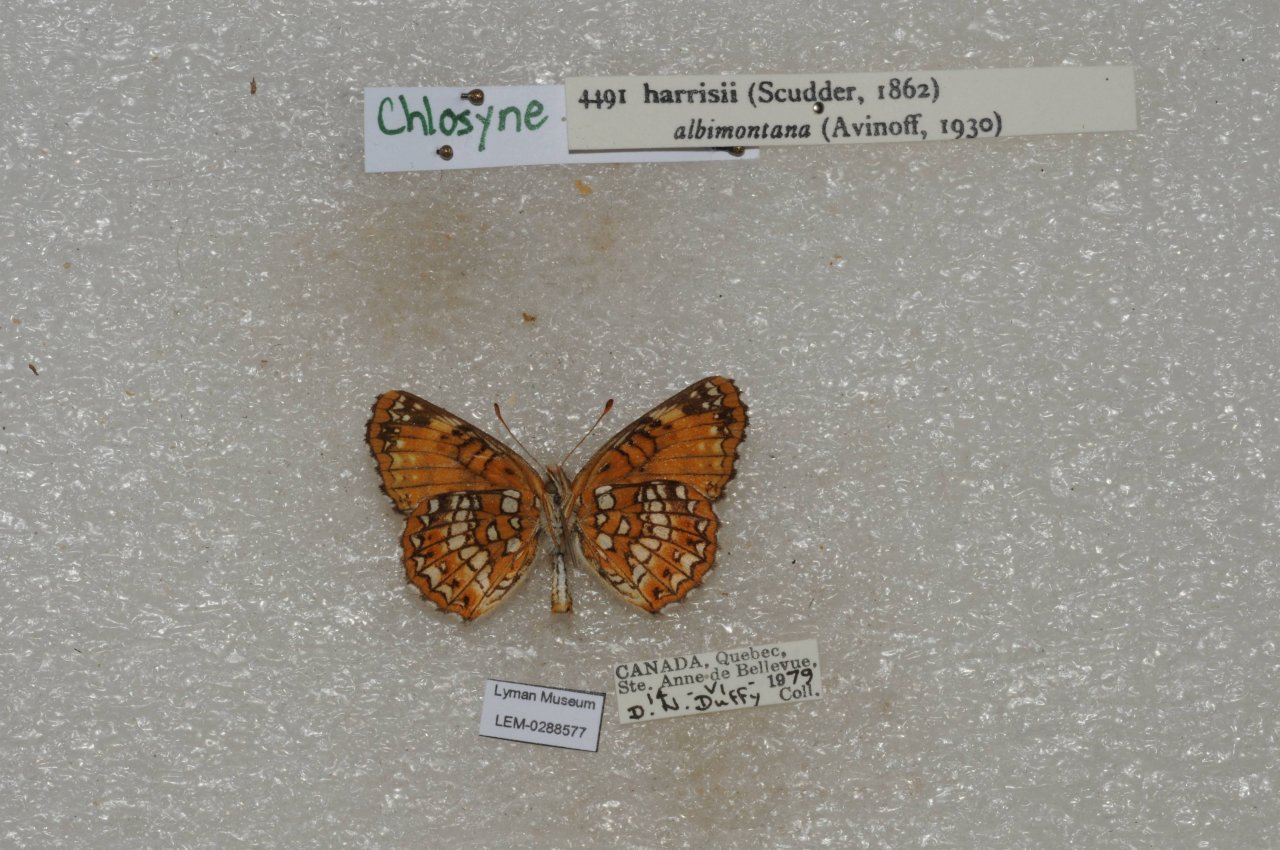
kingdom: Animalia
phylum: Arthropoda
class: Insecta
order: Lepidoptera
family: Nymphalidae
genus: Chlosyne
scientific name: Chlosyne harrisii
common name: Harris's Checkerspot
